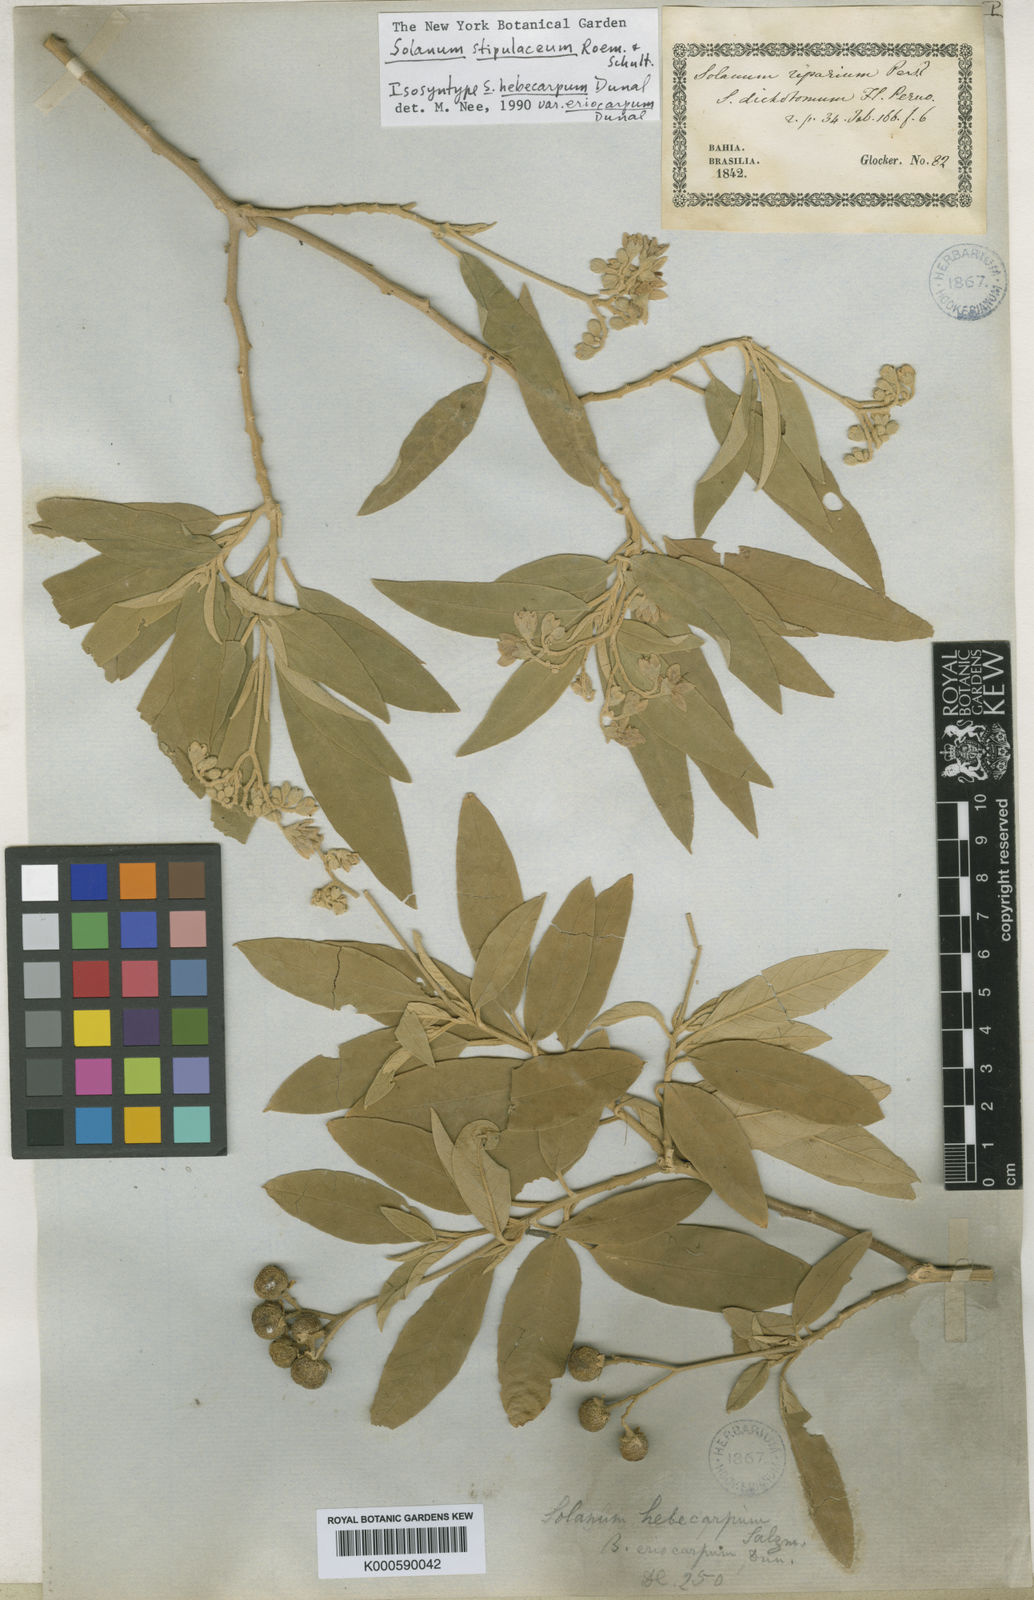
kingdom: Plantae
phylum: Tracheophyta
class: Magnoliopsida
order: Solanales
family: Solanaceae
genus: Solanum
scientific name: Solanum
